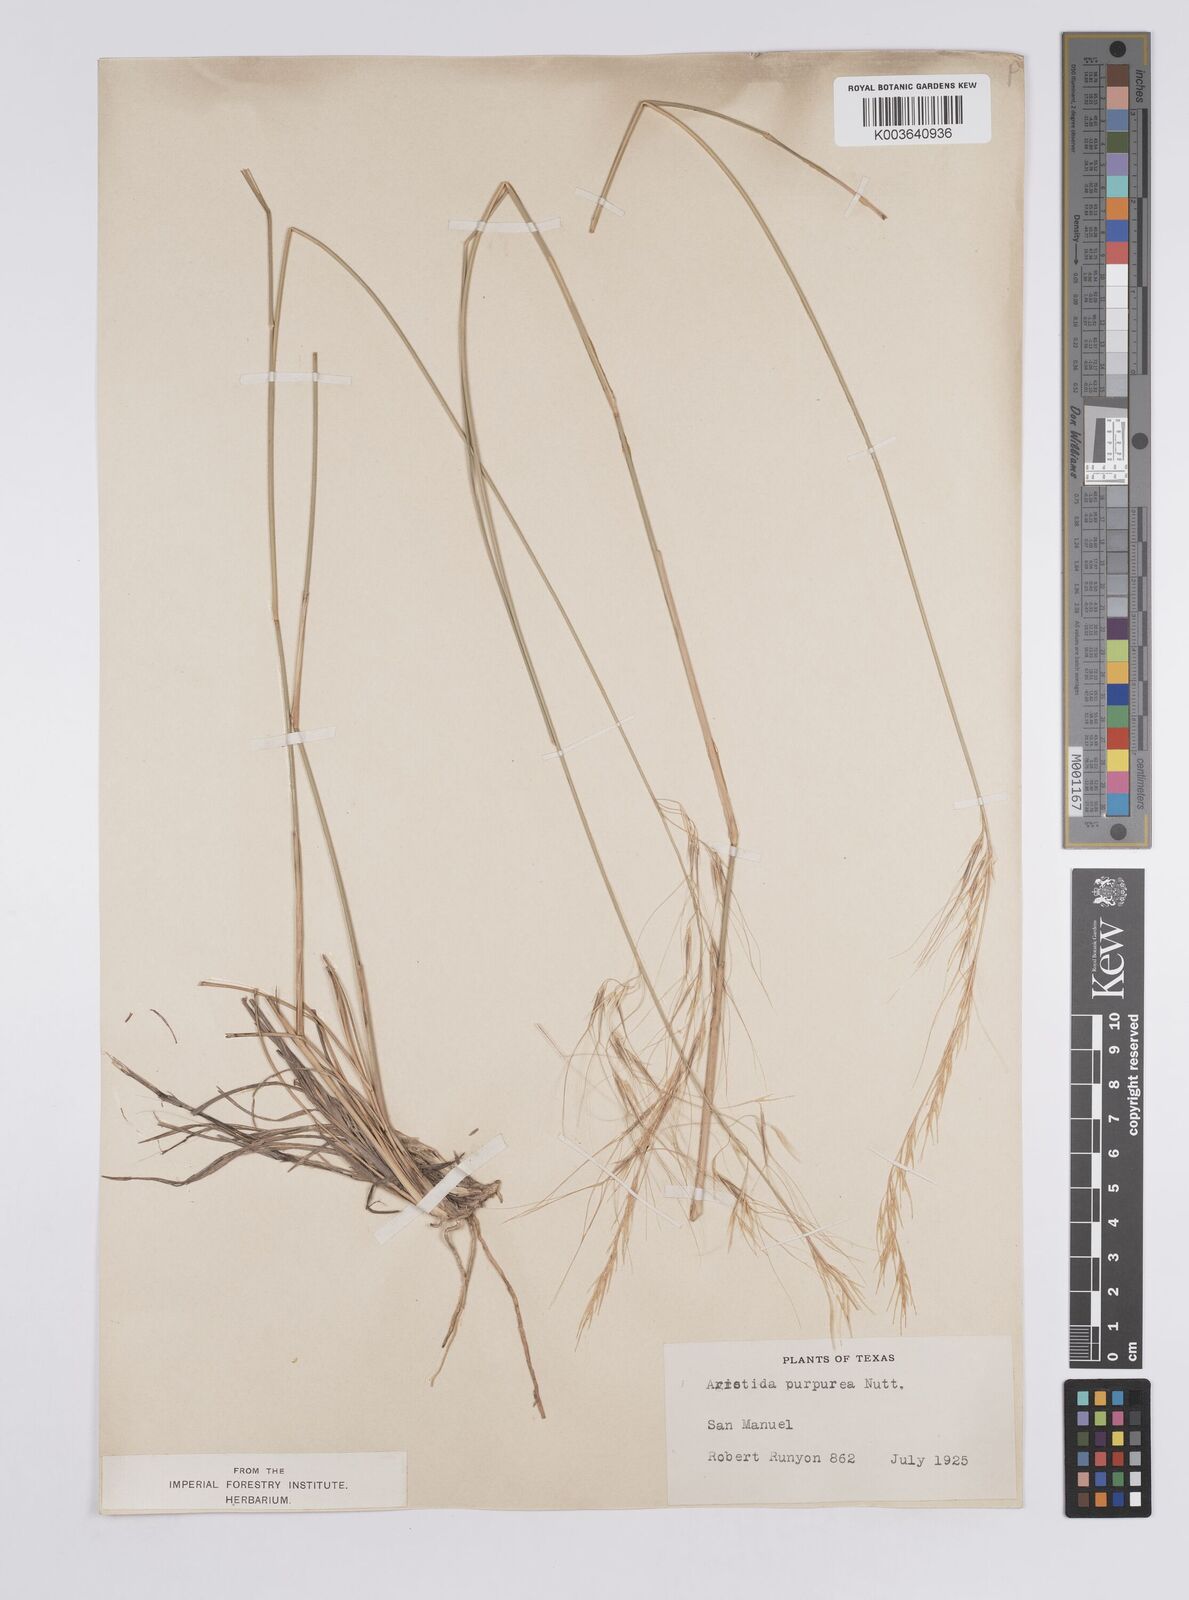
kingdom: Plantae
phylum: Tracheophyta
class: Liliopsida
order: Poales
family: Poaceae
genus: Aristida
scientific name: Aristida purpurea
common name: Purple threeawn
